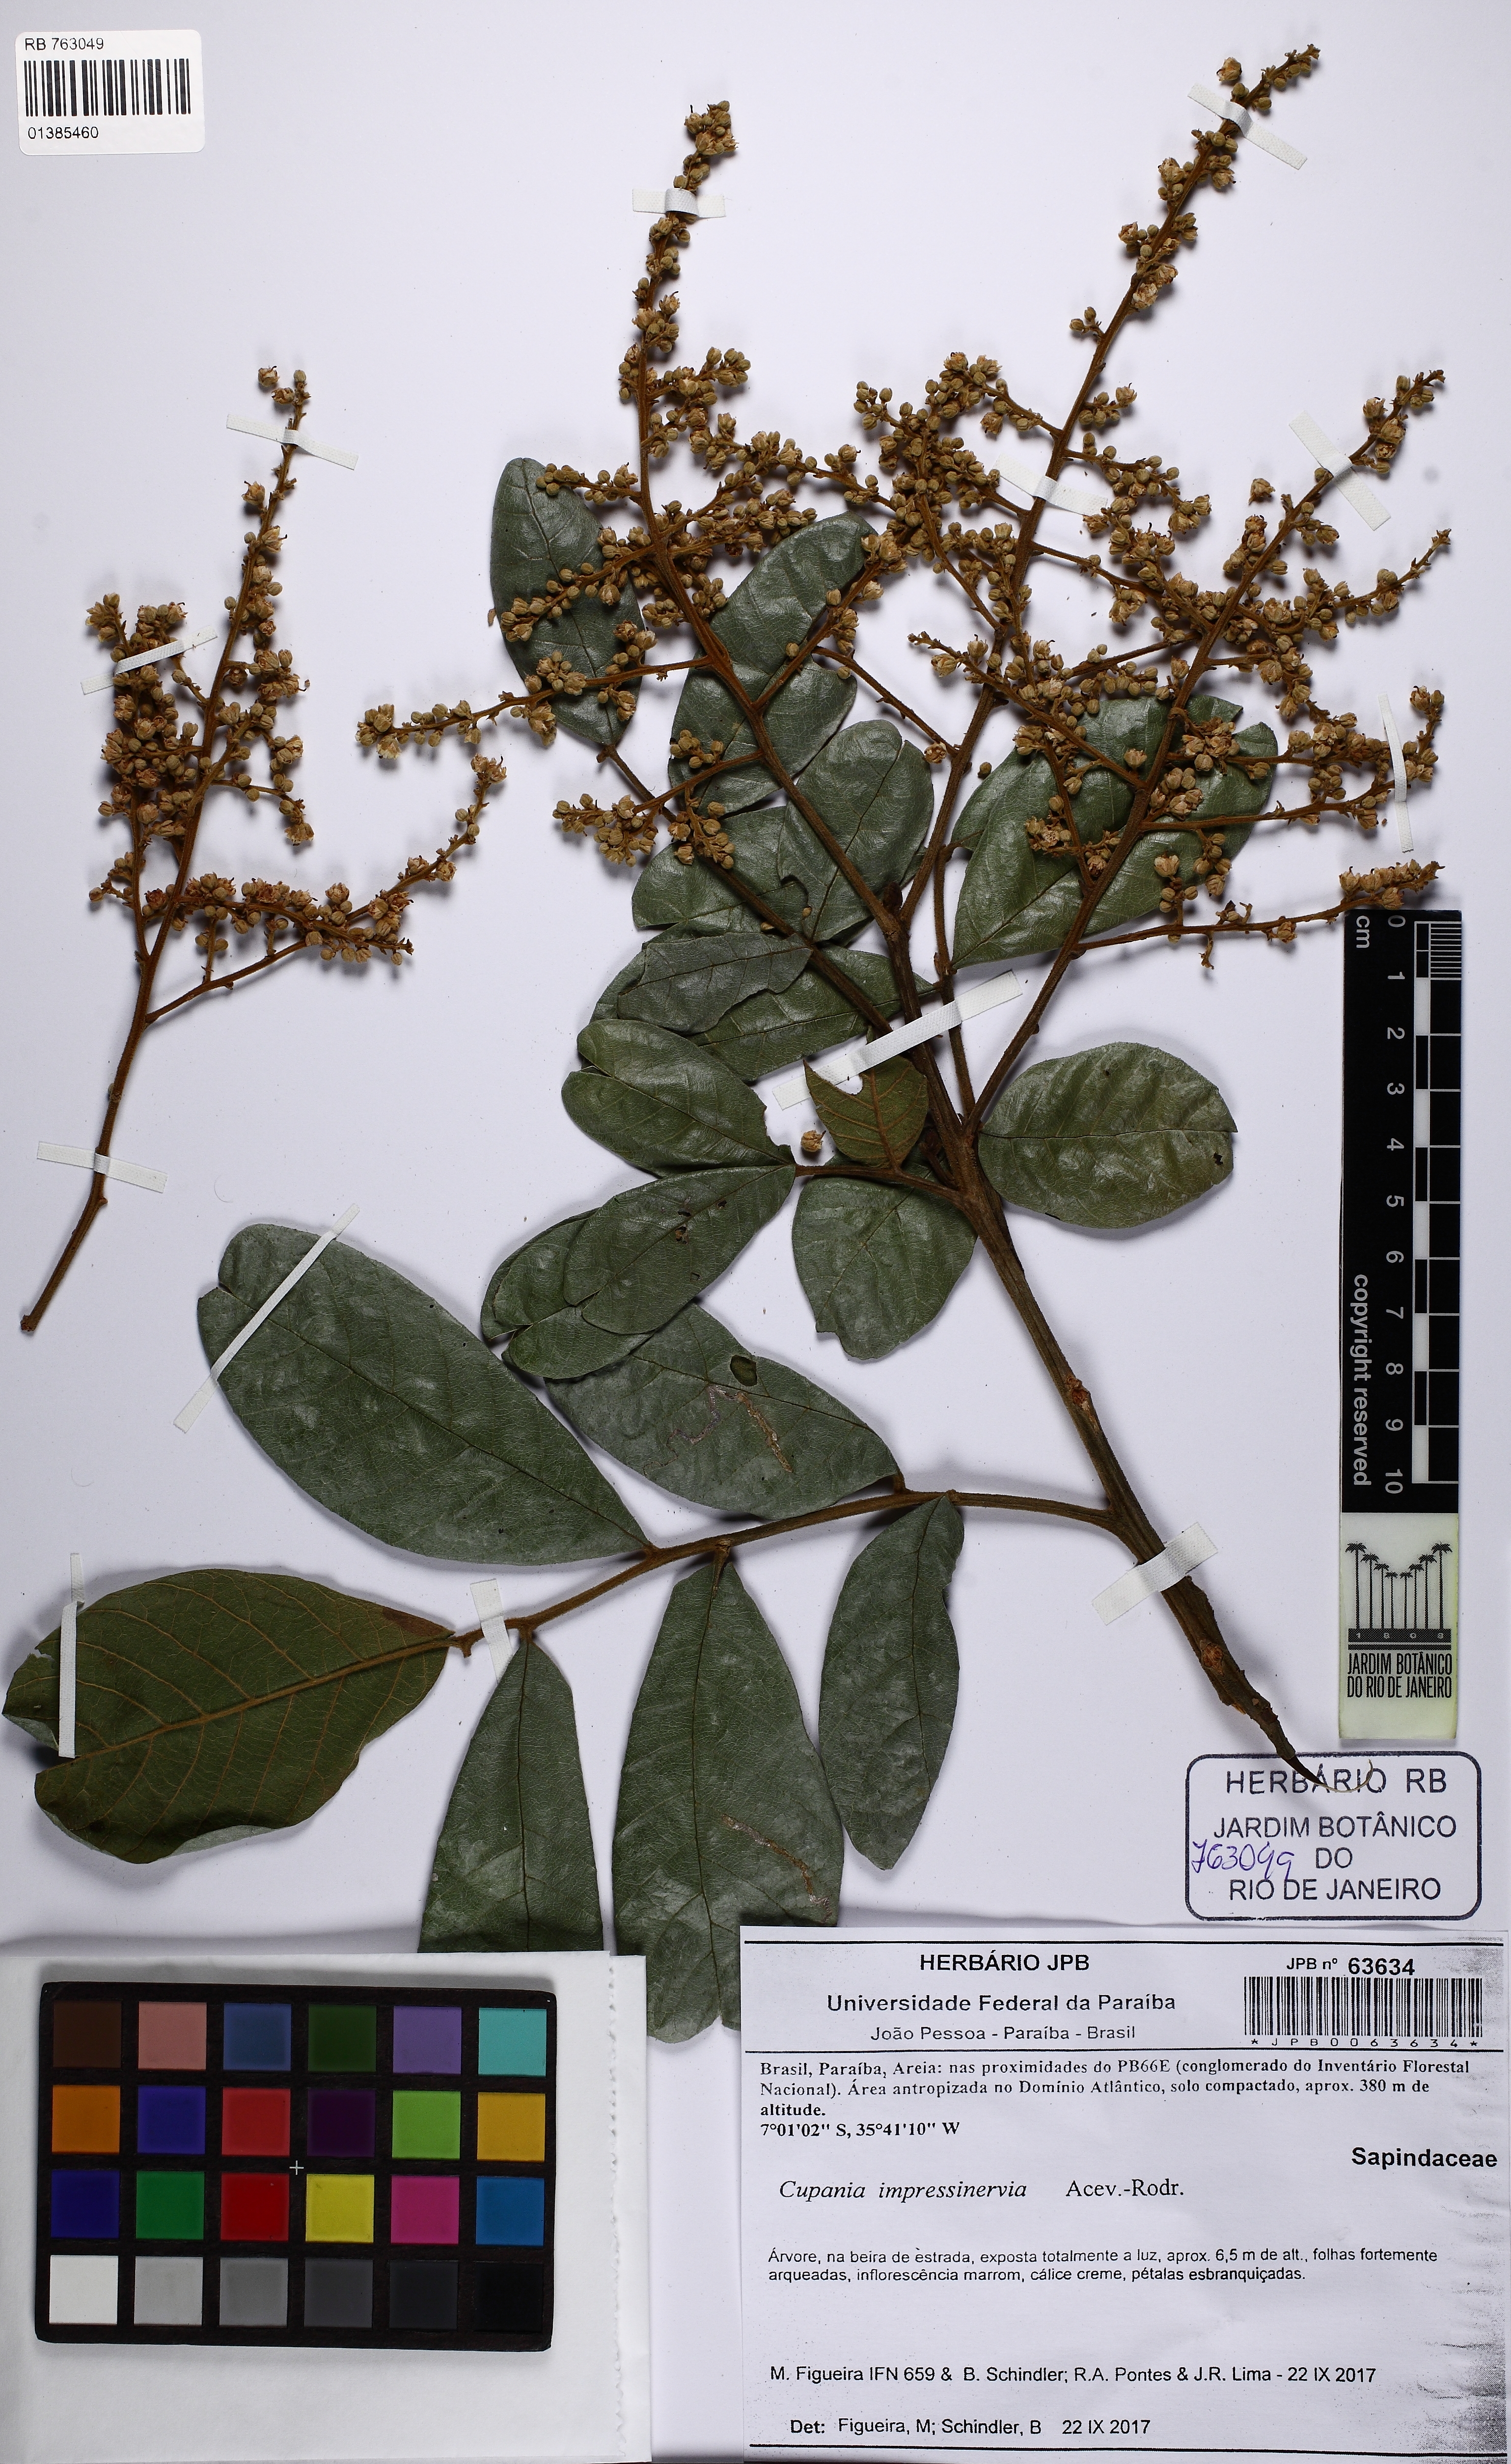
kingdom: Plantae
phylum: Tracheophyta
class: Magnoliopsida
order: Sapindales
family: Sapindaceae
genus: Cupania
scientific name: Cupania impressinervia
